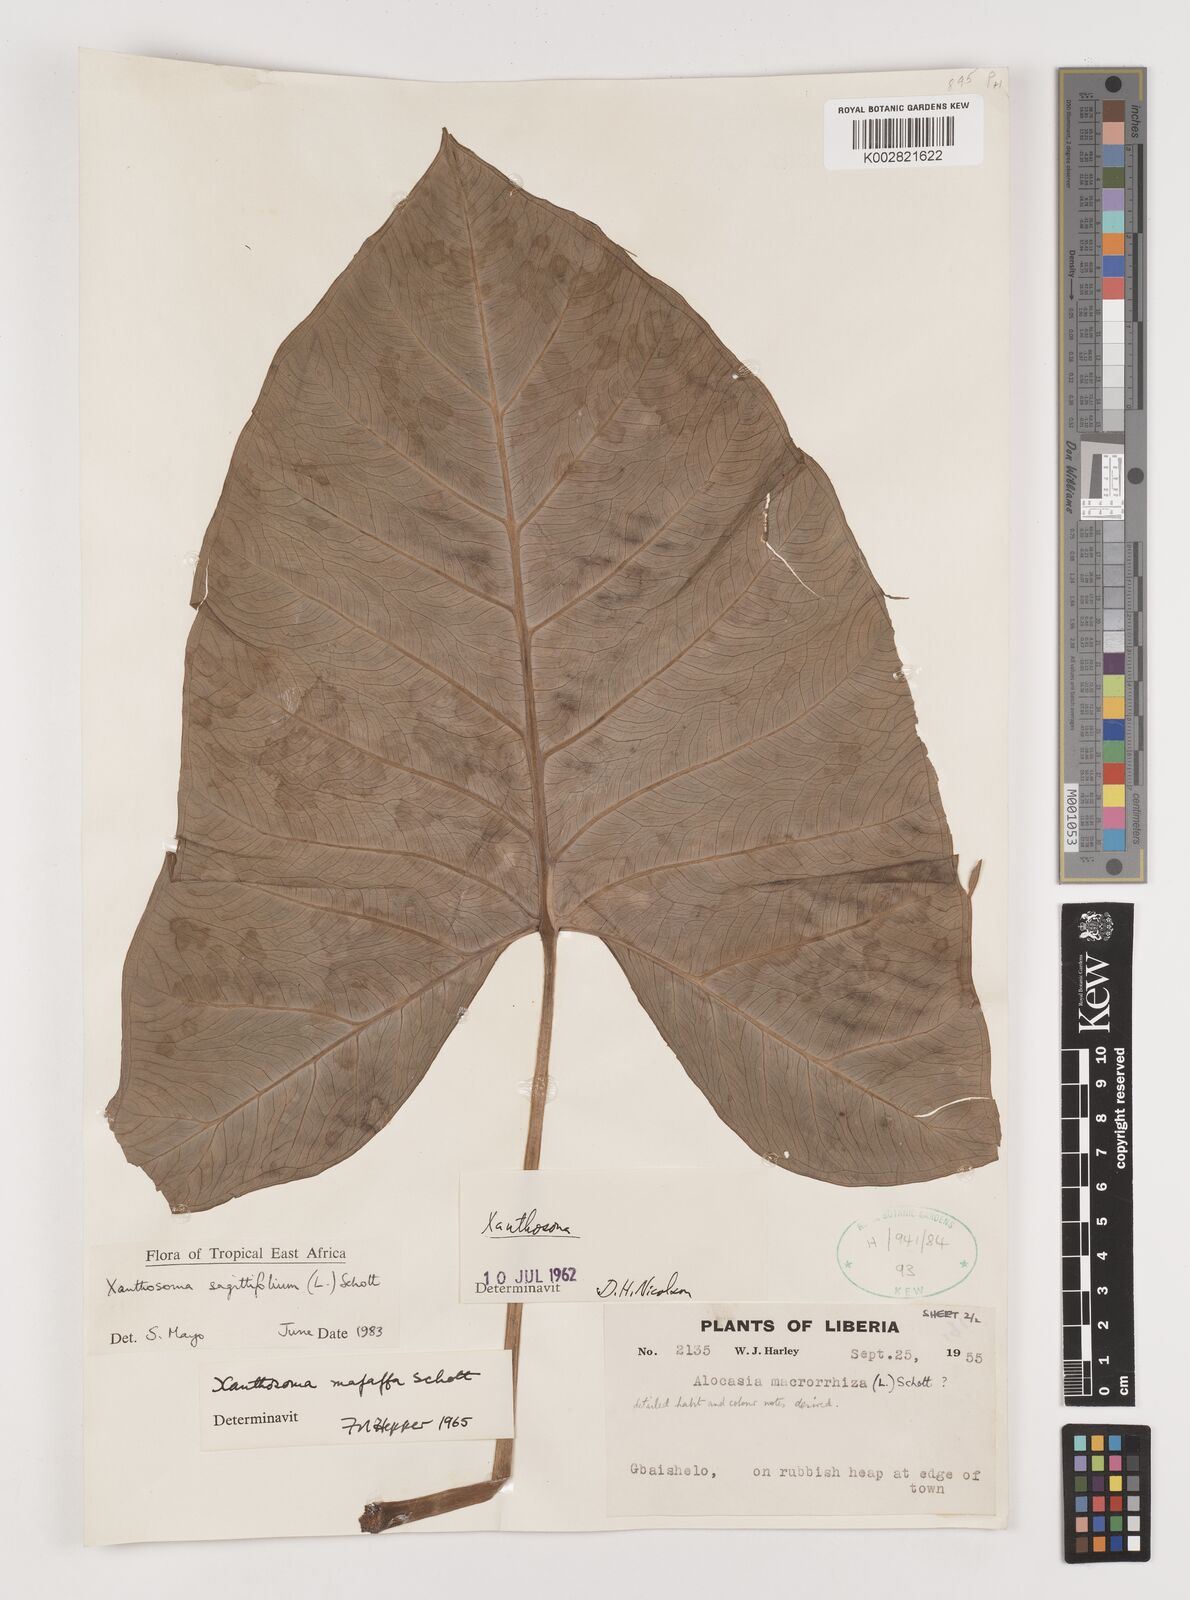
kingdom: Plantae
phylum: Tracheophyta
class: Liliopsida
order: Alismatales
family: Araceae
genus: Xanthosoma
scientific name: Xanthosoma sagittifolium
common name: Arrowleaf elephant's ear
